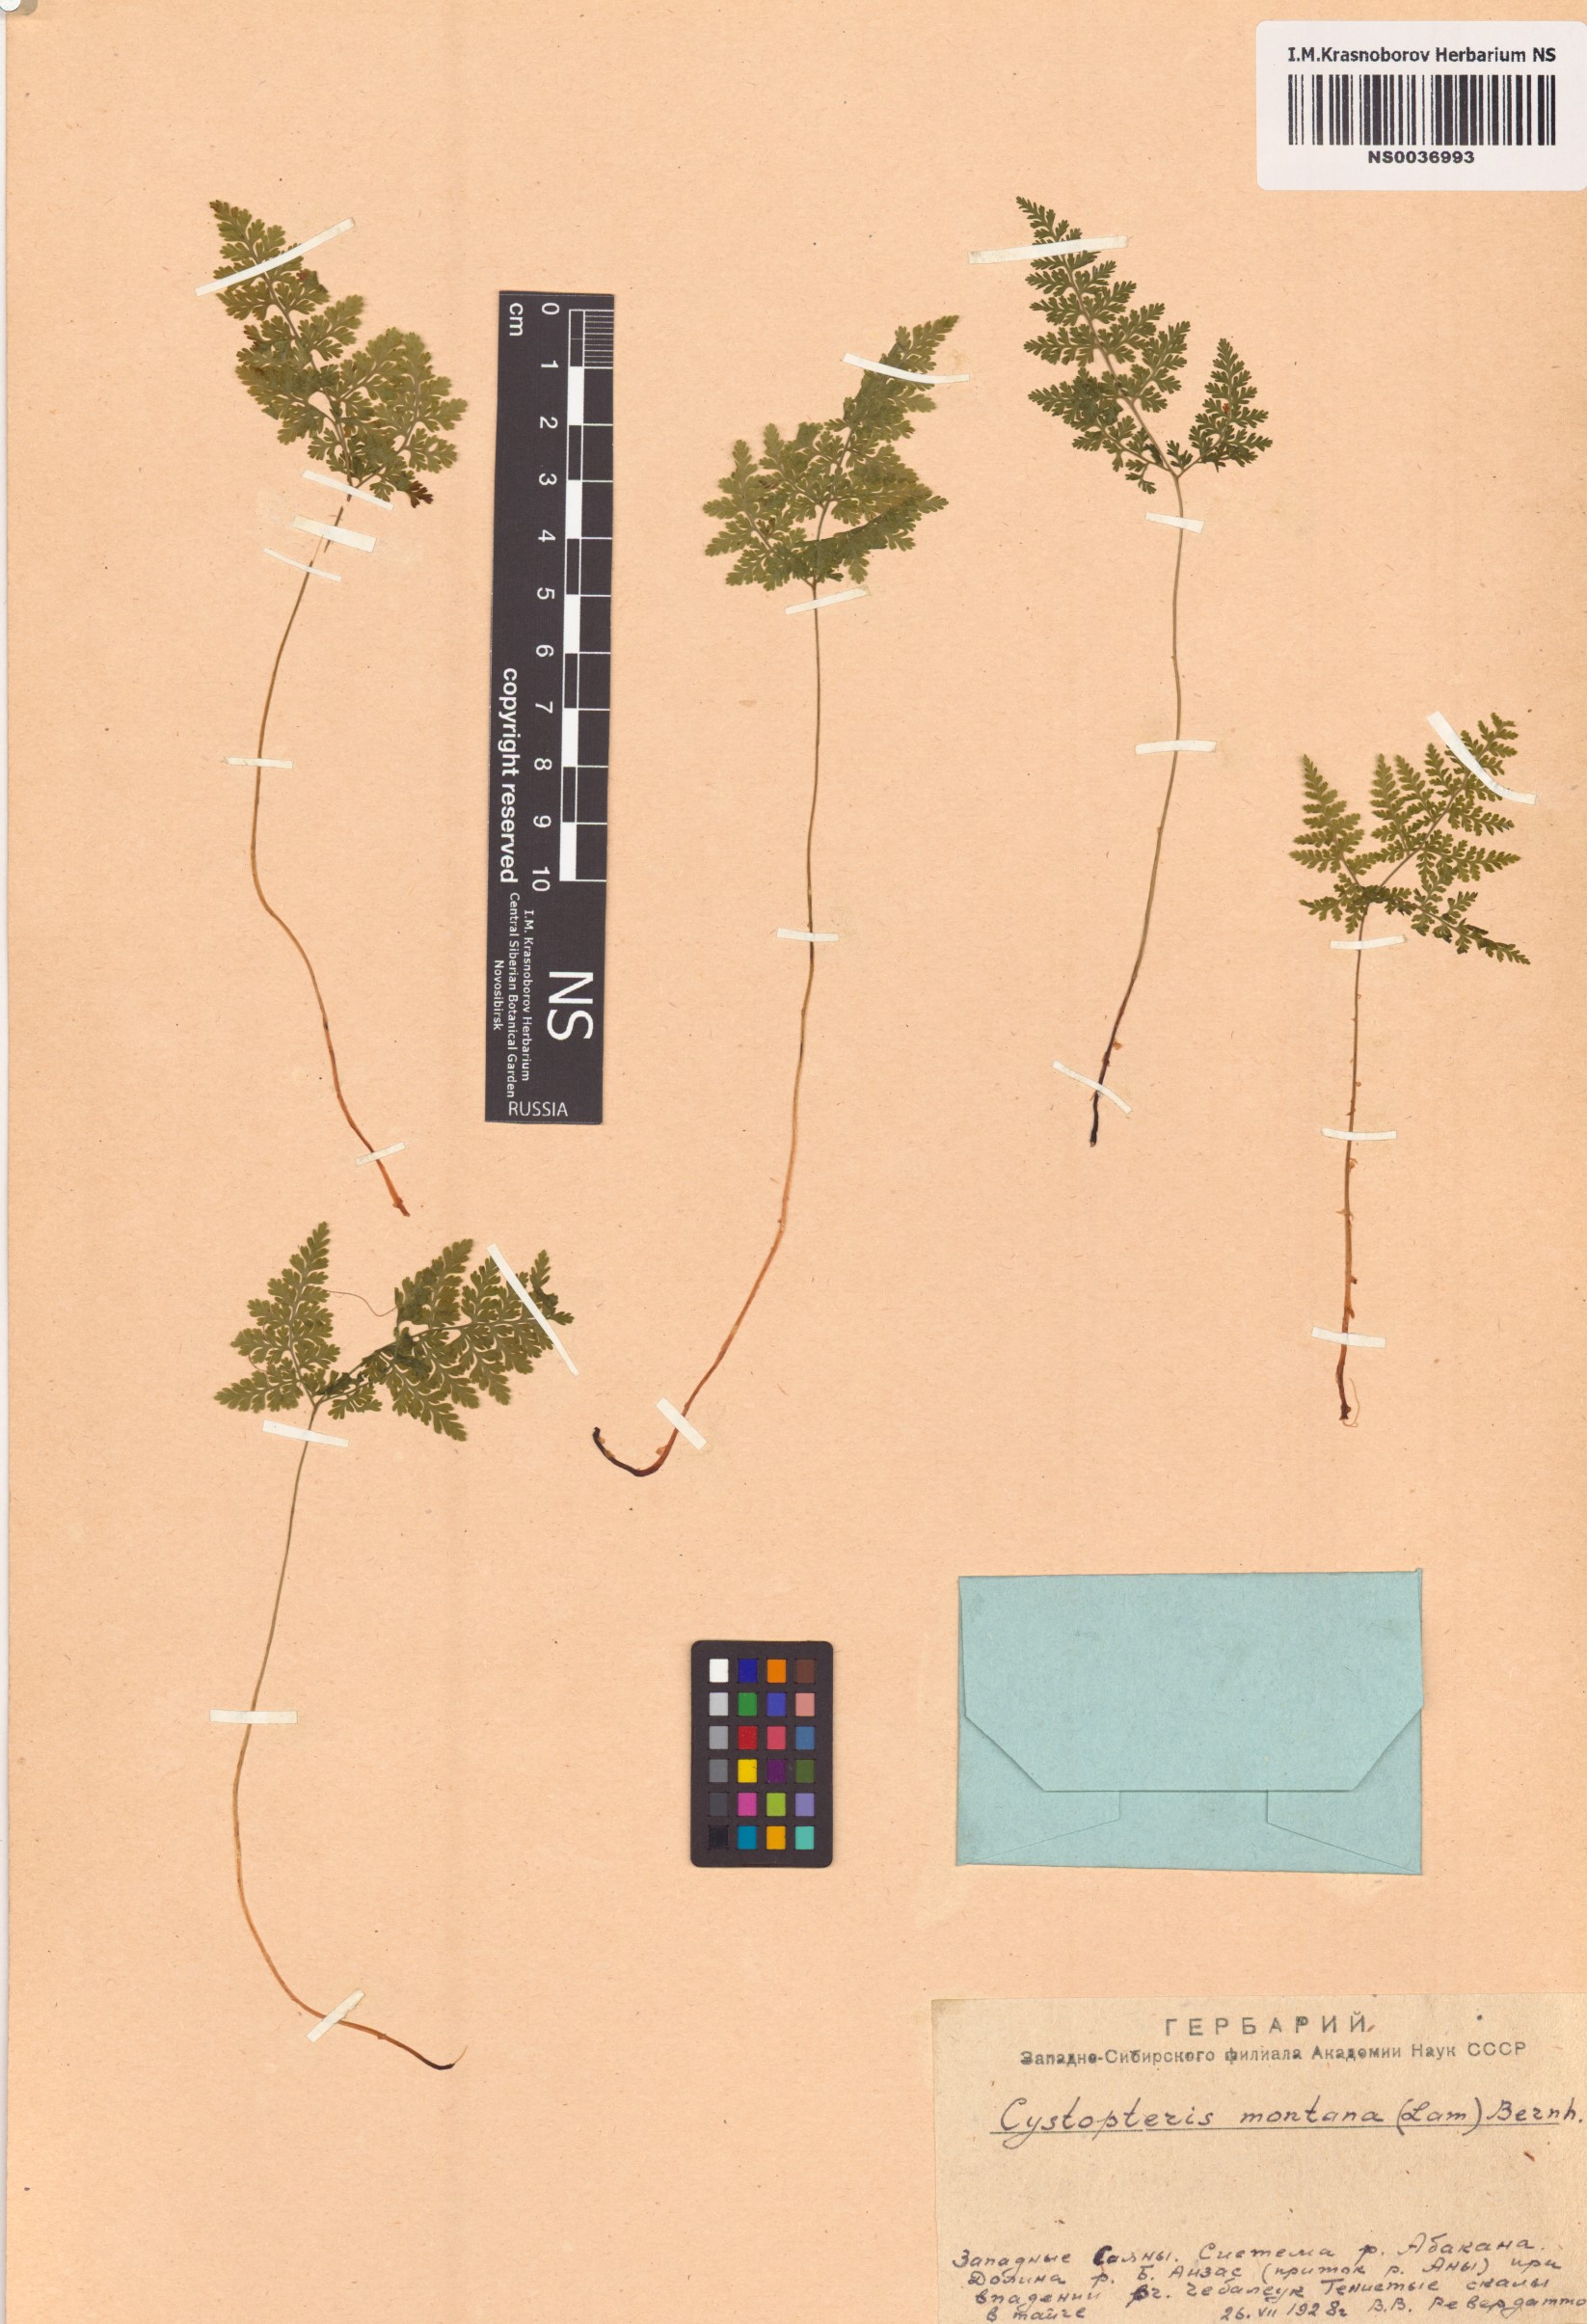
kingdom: Plantae
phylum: Tracheophyta
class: Polypodiopsida
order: Polypodiales
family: Cystopteridaceae
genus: Cystopteris
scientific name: Cystopteris montana
